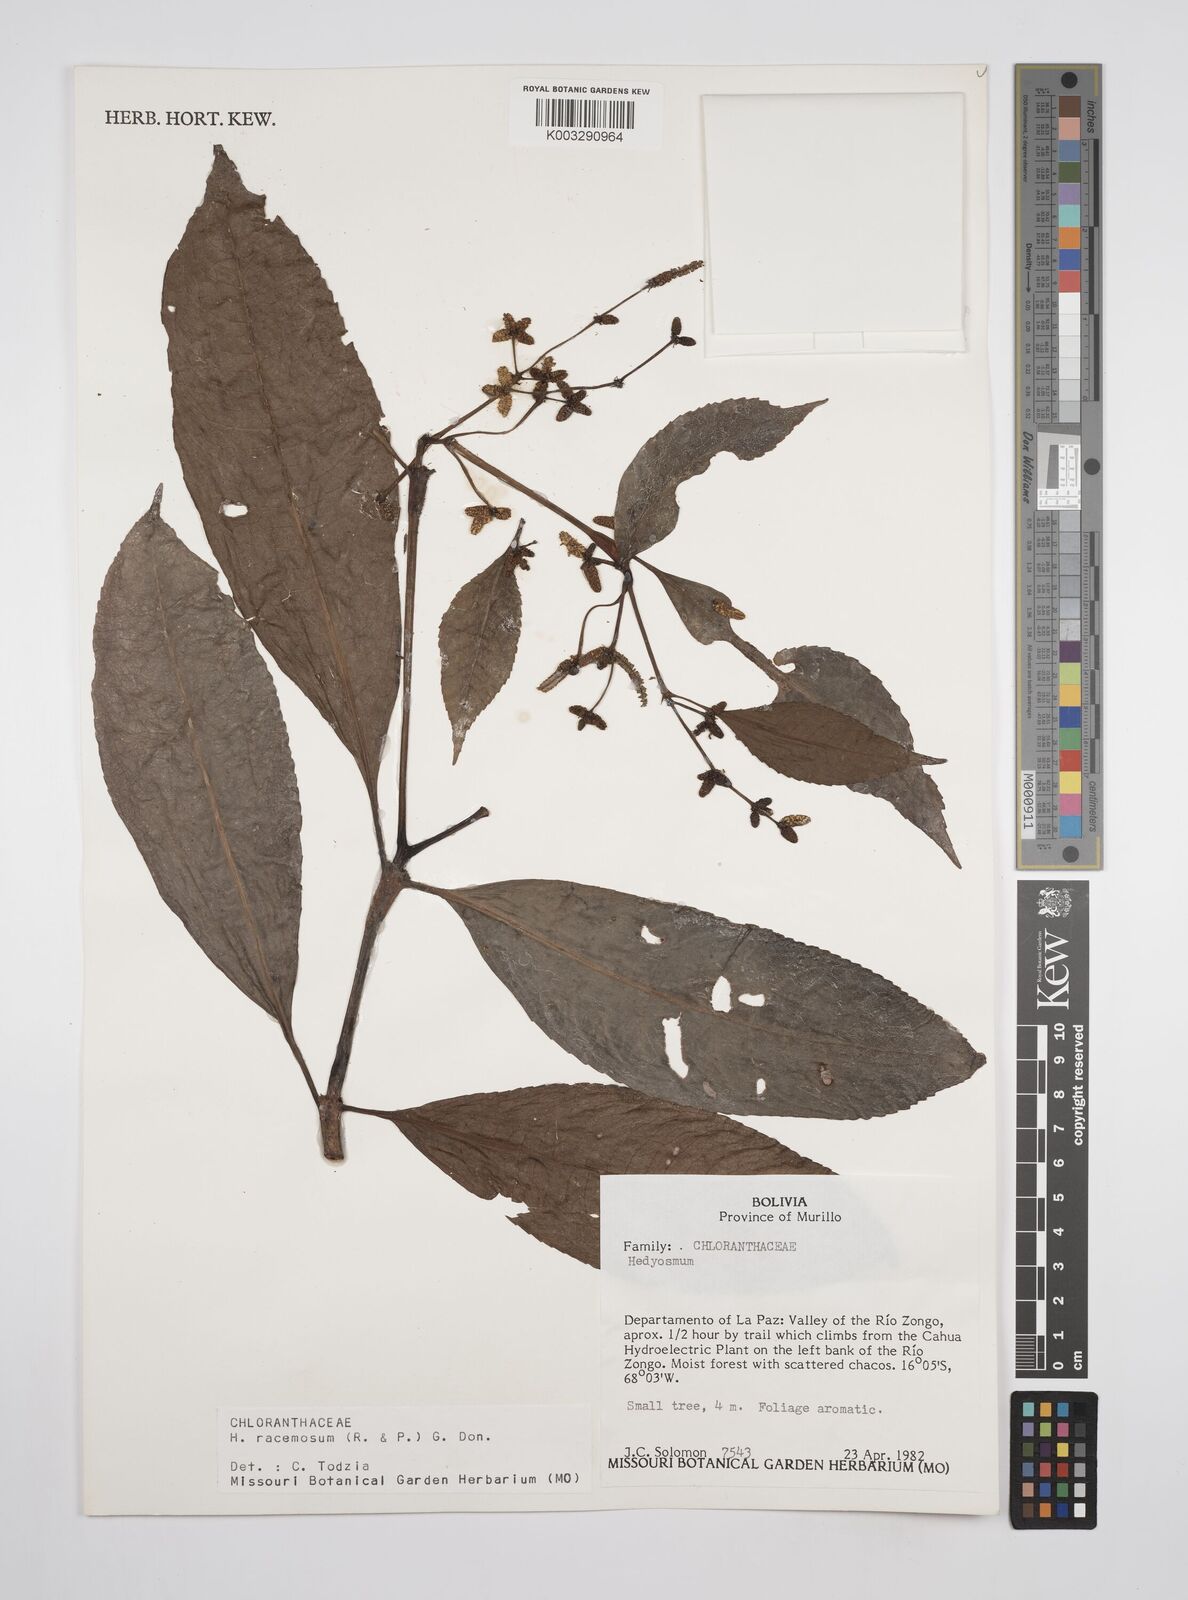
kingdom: Plantae
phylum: Tracheophyta
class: Magnoliopsida
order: Chloranthales
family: Chloranthaceae
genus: Hedyosmum
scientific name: Hedyosmum racemosum
